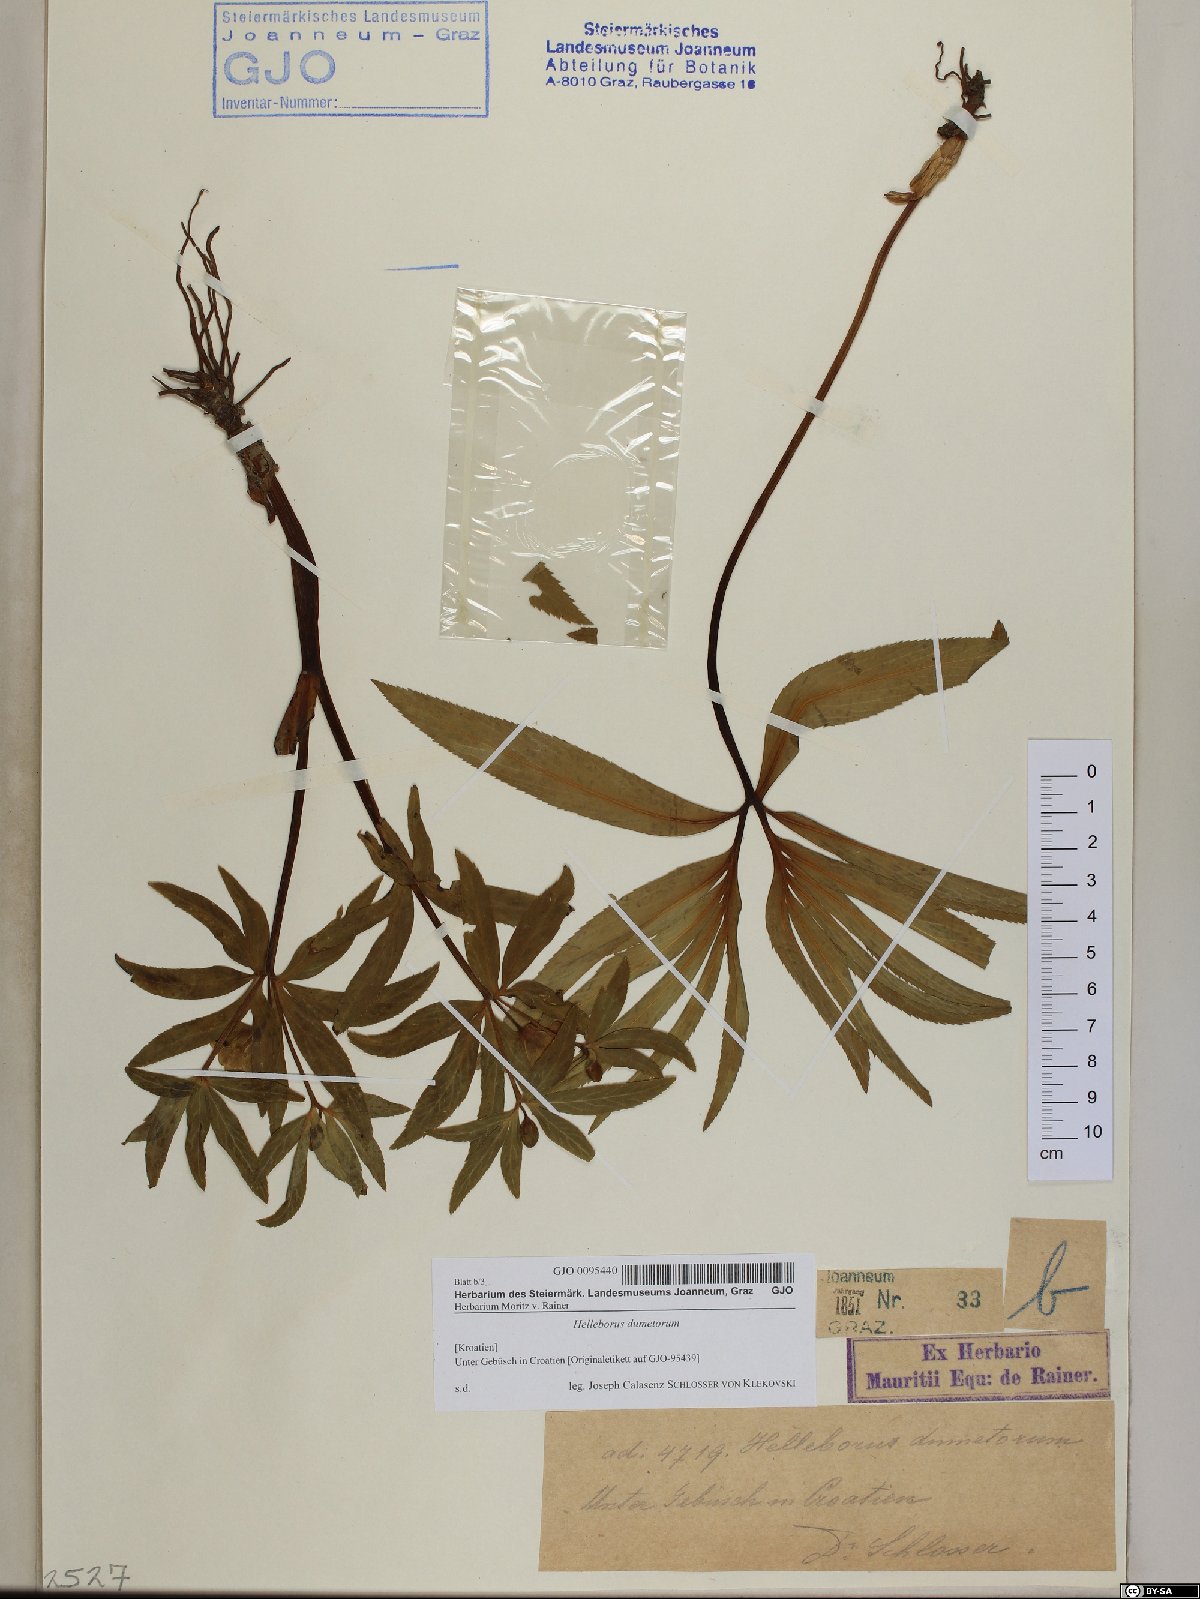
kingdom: Plantae
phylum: Tracheophyta
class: Magnoliopsida
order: Ranunculales
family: Ranunculaceae
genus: Helleborus
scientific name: Helleborus dumetorum
